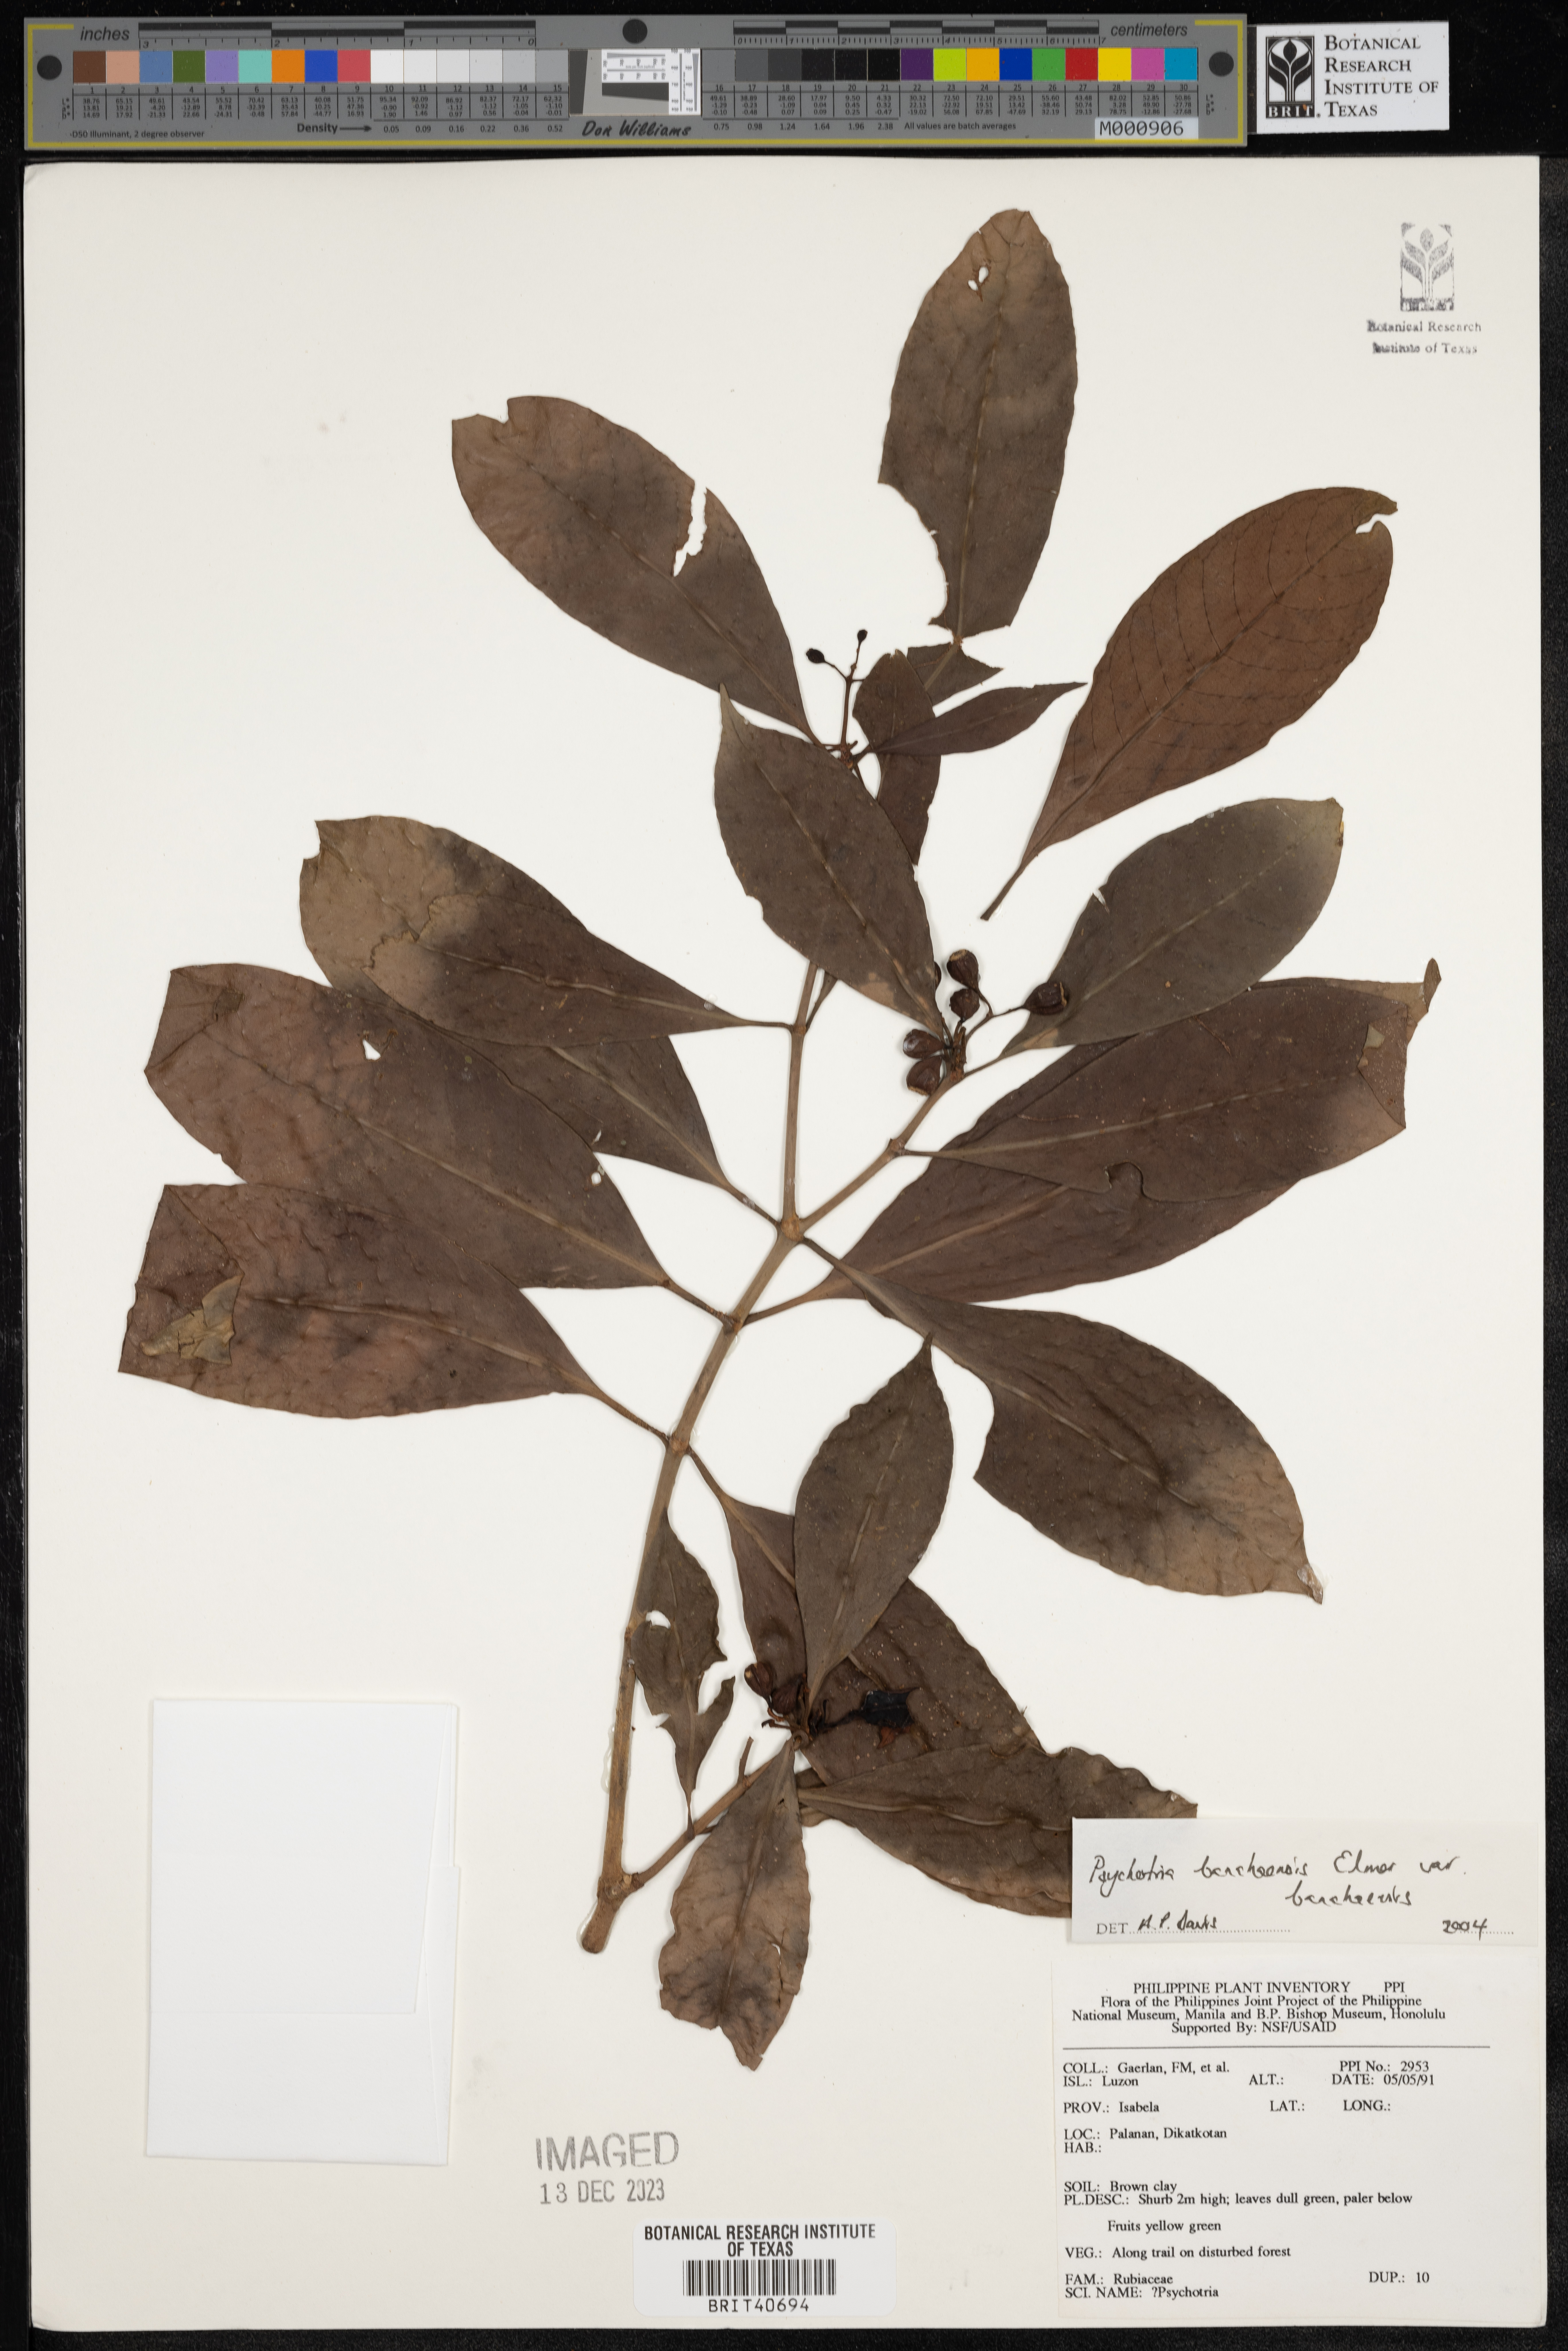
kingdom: Plantae
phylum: Tracheophyta
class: Magnoliopsida
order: Gentianales
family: Rubiaceae
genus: Psychotria
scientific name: Psychotria banahaensis
